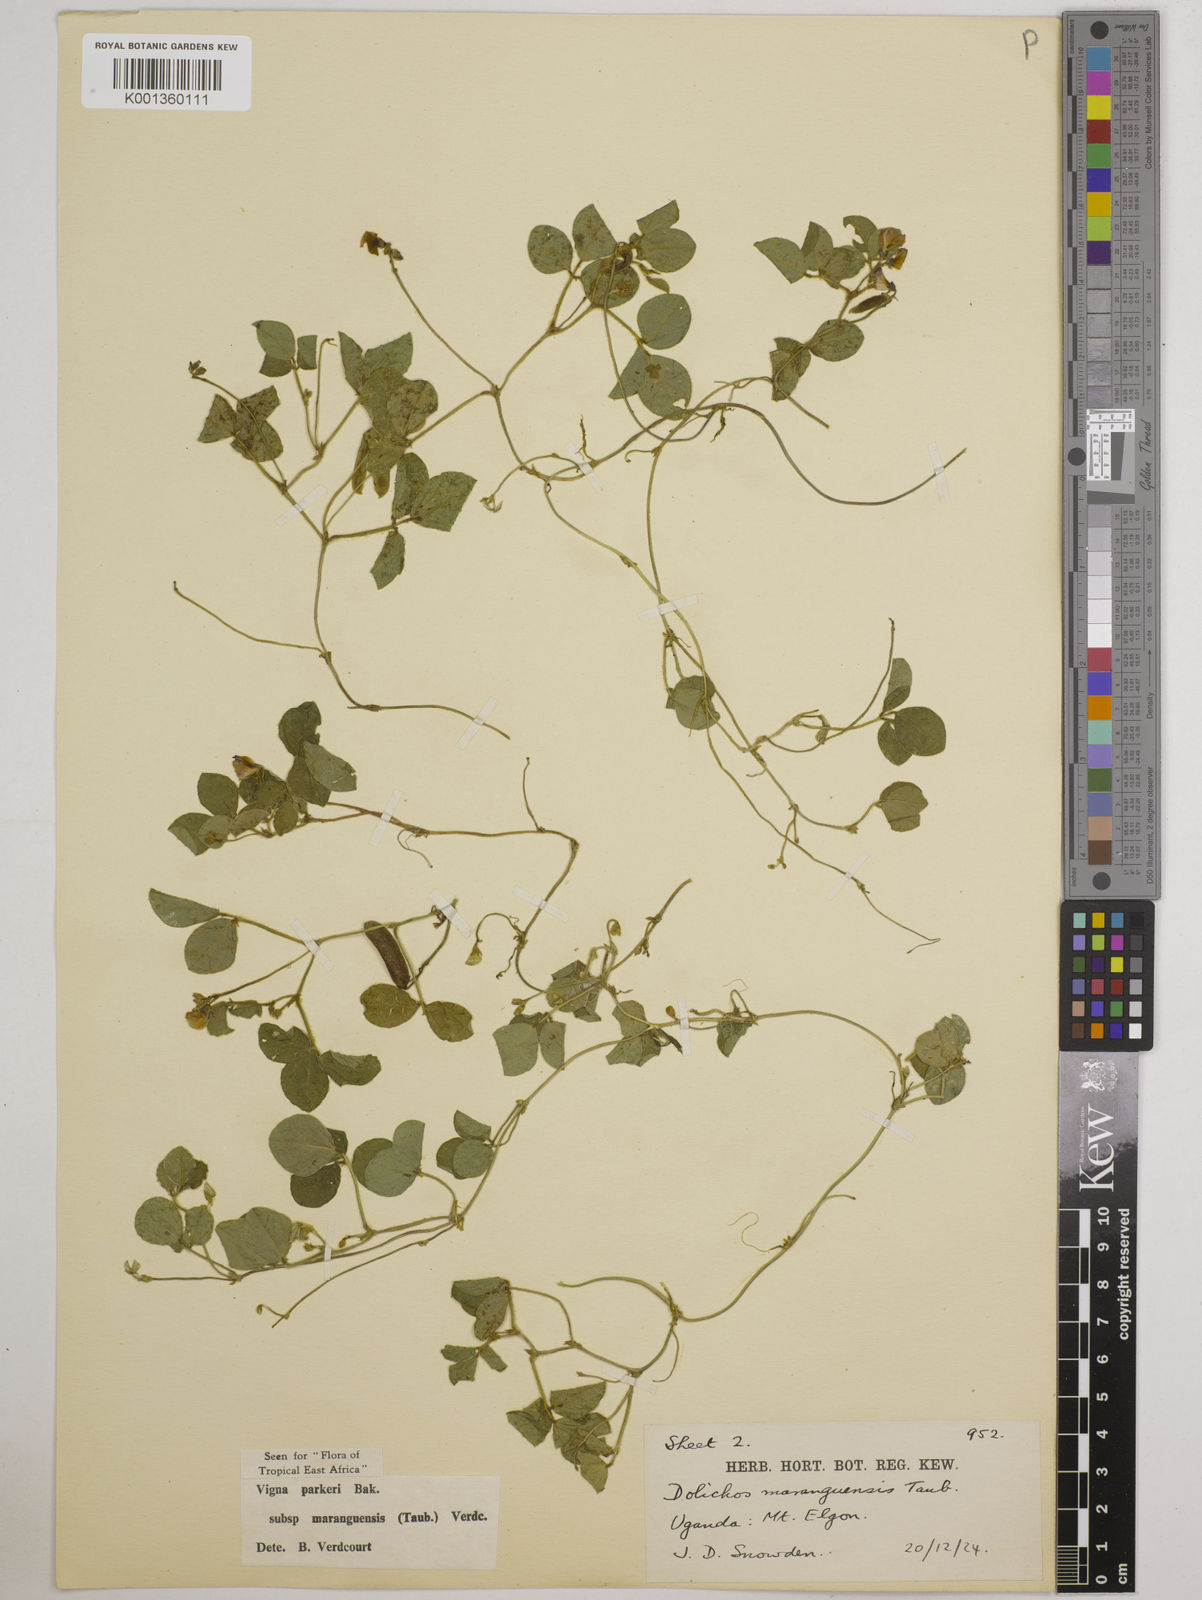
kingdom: Plantae
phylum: Tracheophyta
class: Magnoliopsida
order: Fabales
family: Fabaceae
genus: Vigna
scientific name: Vigna
